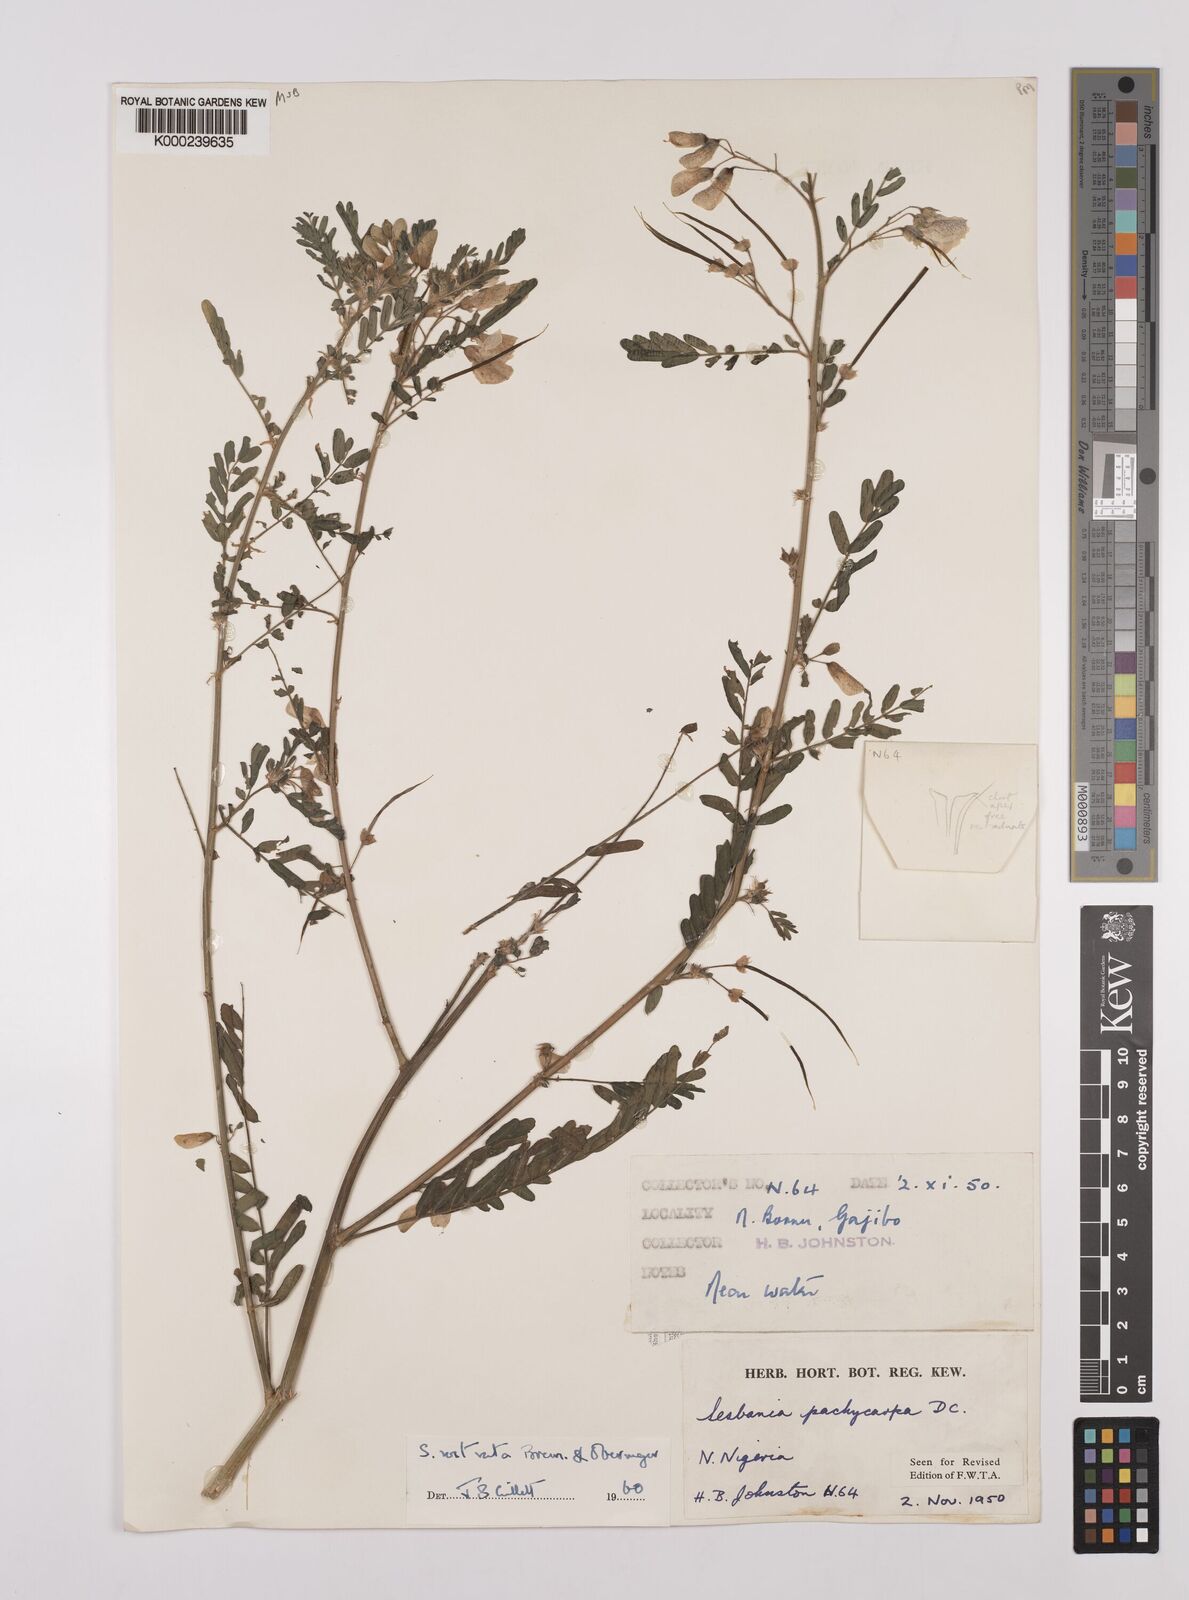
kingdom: Plantae
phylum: Tracheophyta
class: Magnoliopsida
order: Fabales
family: Fabaceae
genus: Sesbania
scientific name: Sesbania rostrata
